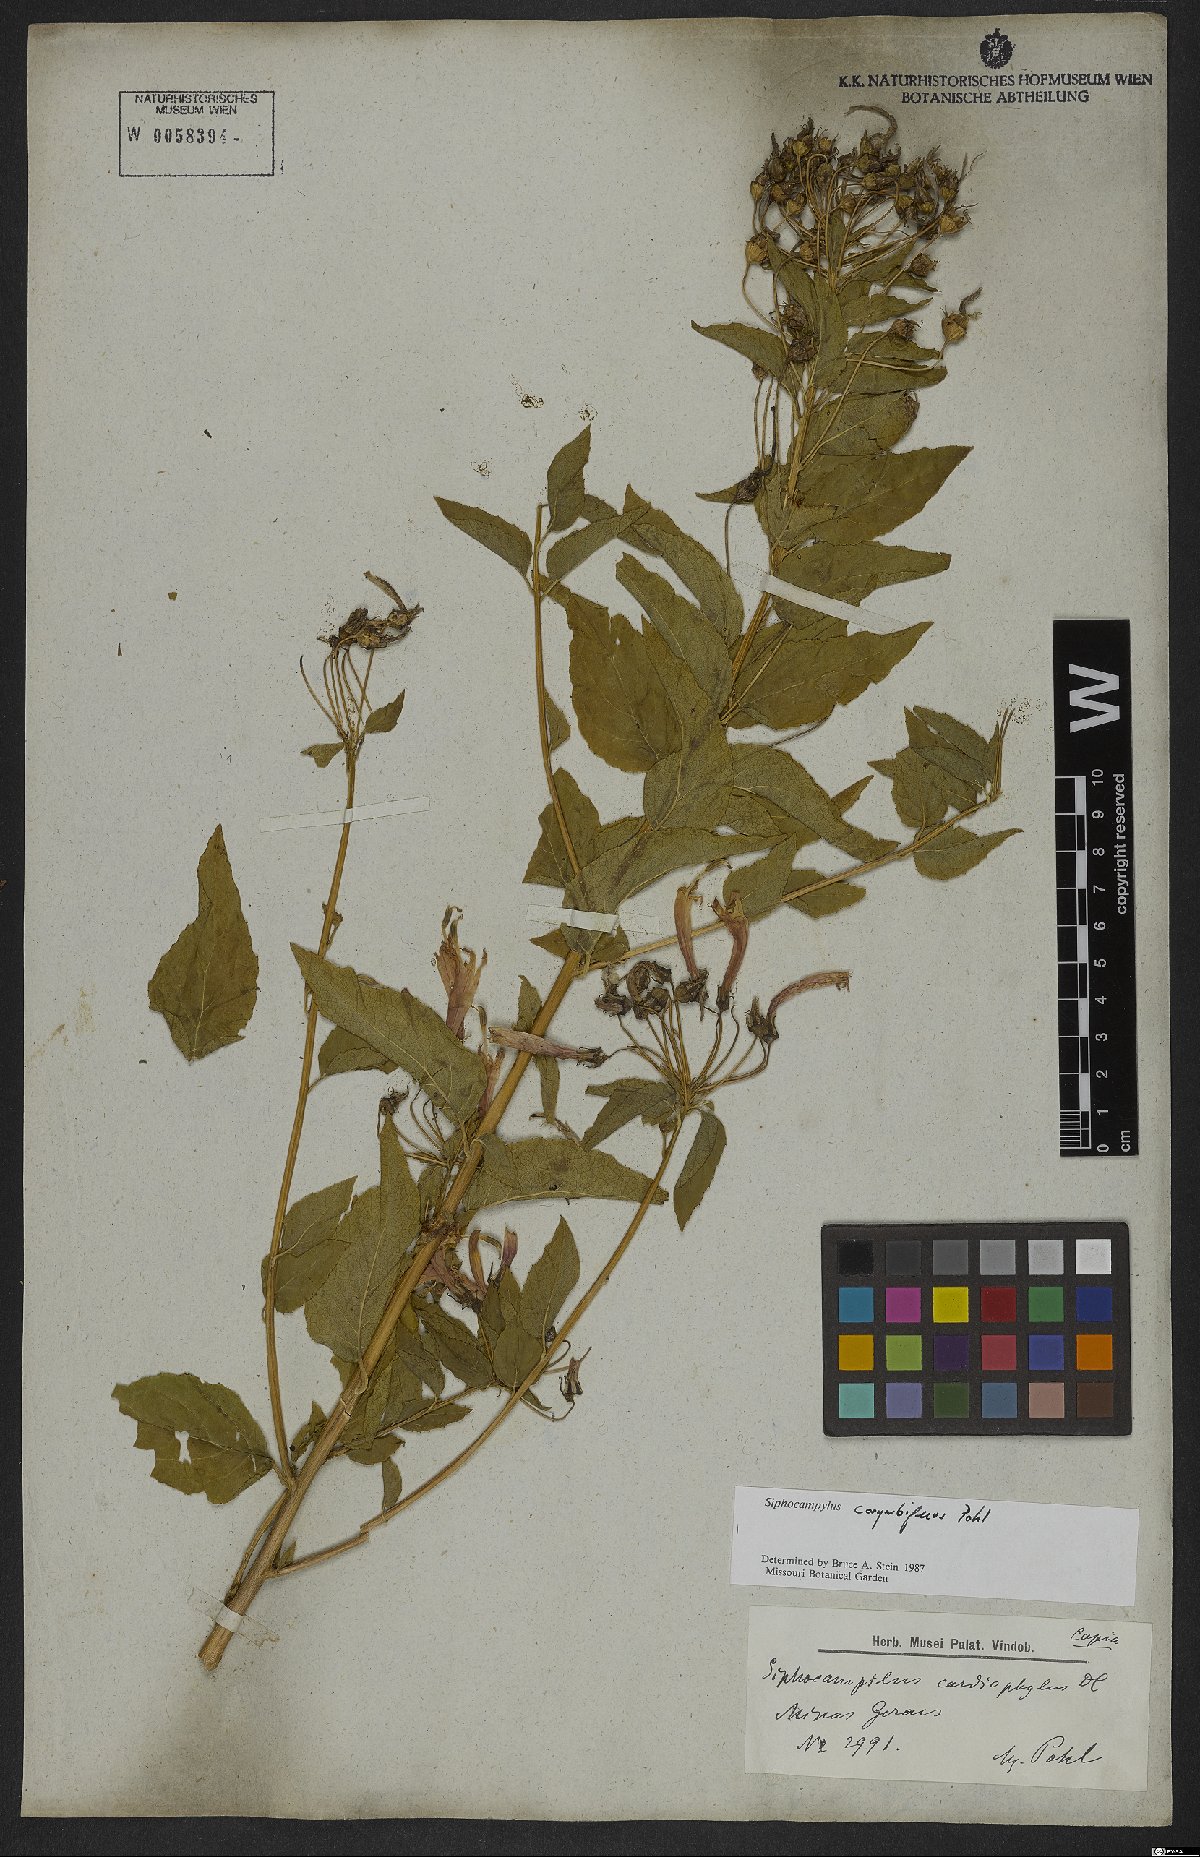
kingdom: Plantae
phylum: Tracheophyta
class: Magnoliopsida
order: Asterales
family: Campanulaceae
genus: Siphocampylus
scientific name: Siphocampylus corymbiferus
